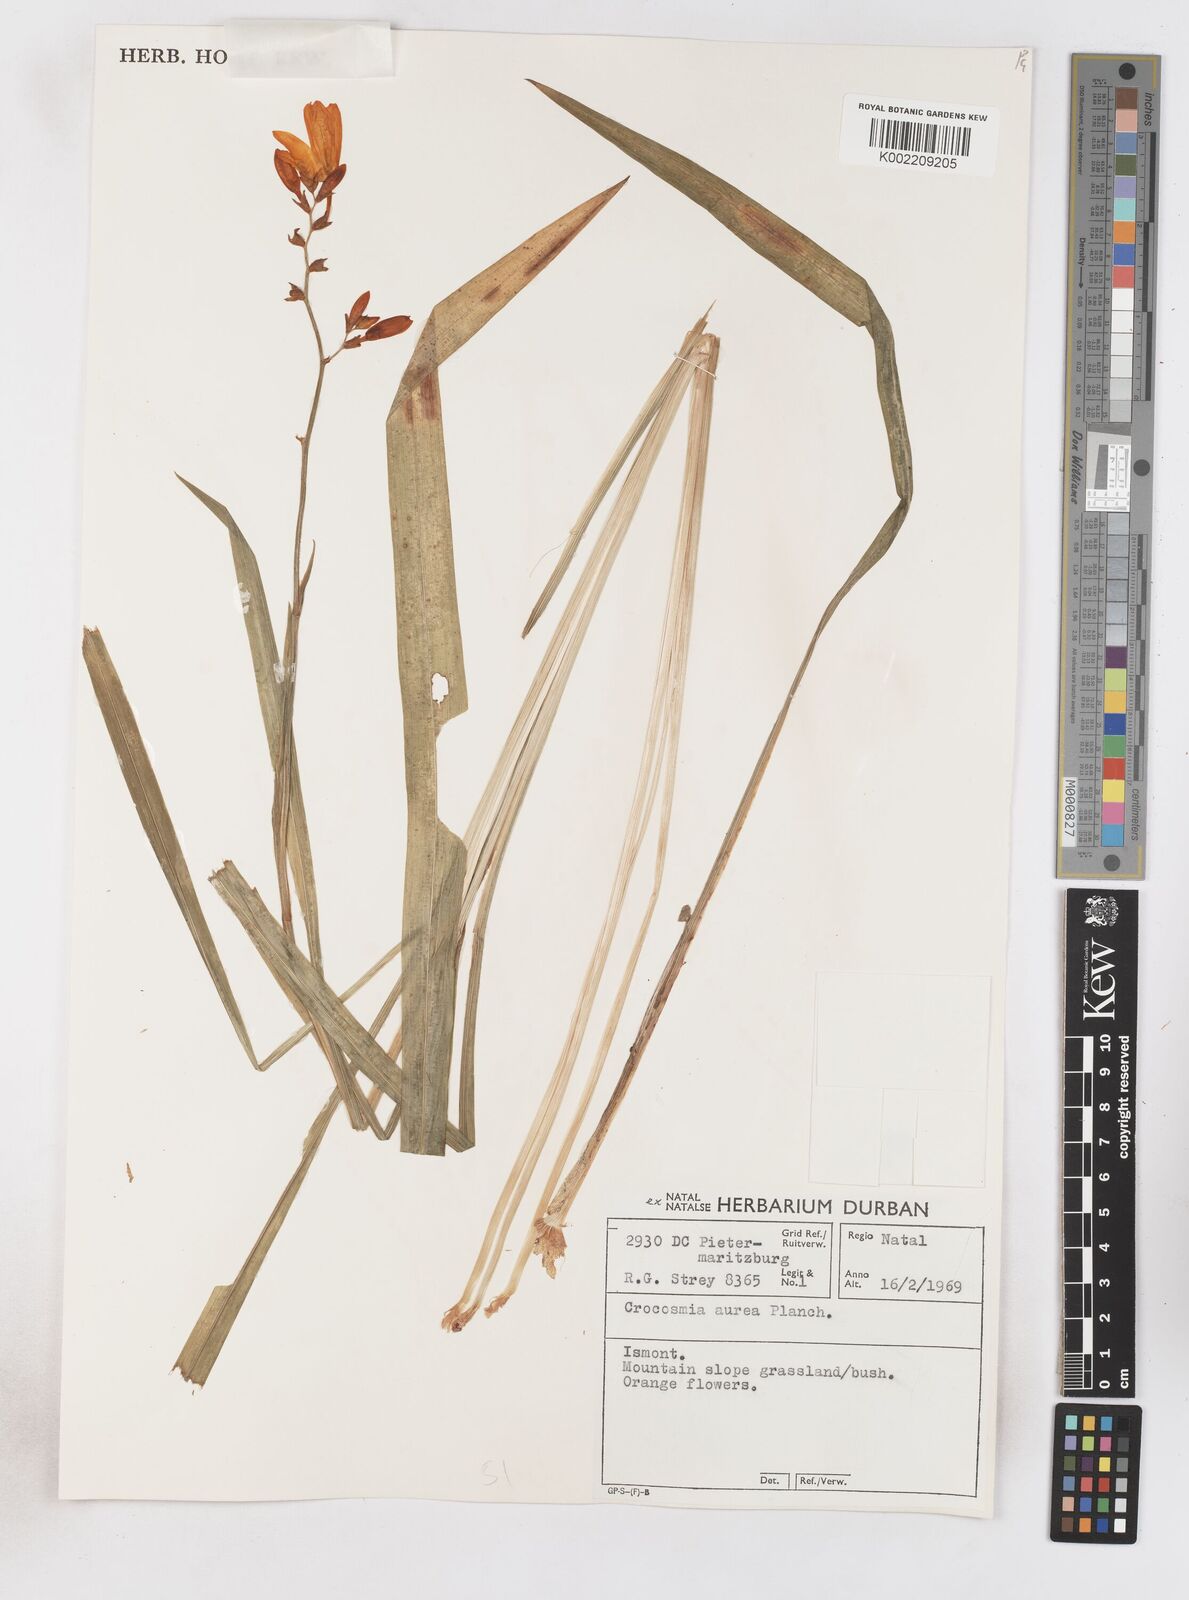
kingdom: Plantae
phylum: Tracheophyta
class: Liliopsida
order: Asparagales
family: Iridaceae
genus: Crocosmia
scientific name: Crocosmia aurea
